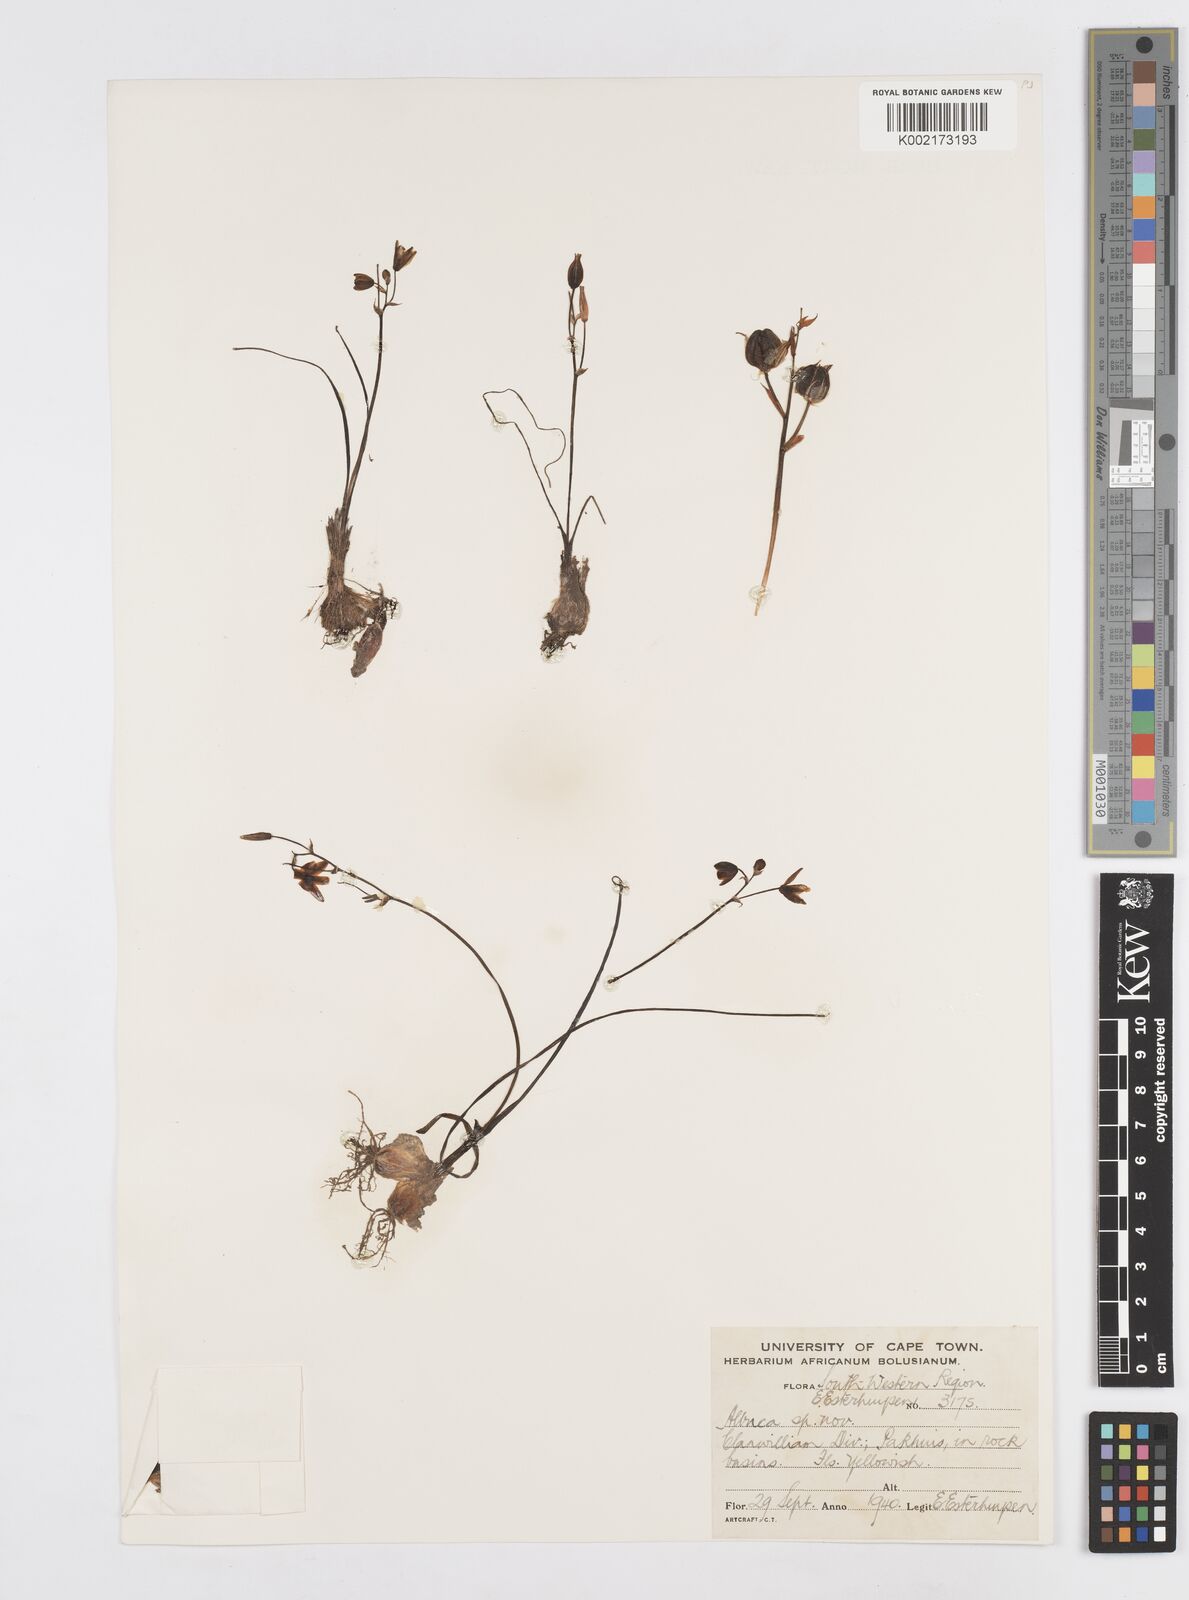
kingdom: Plantae
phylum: Tracheophyta
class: Liliopsida
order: Asparagales
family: Asparagaceae
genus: Albuca
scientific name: Albuca
